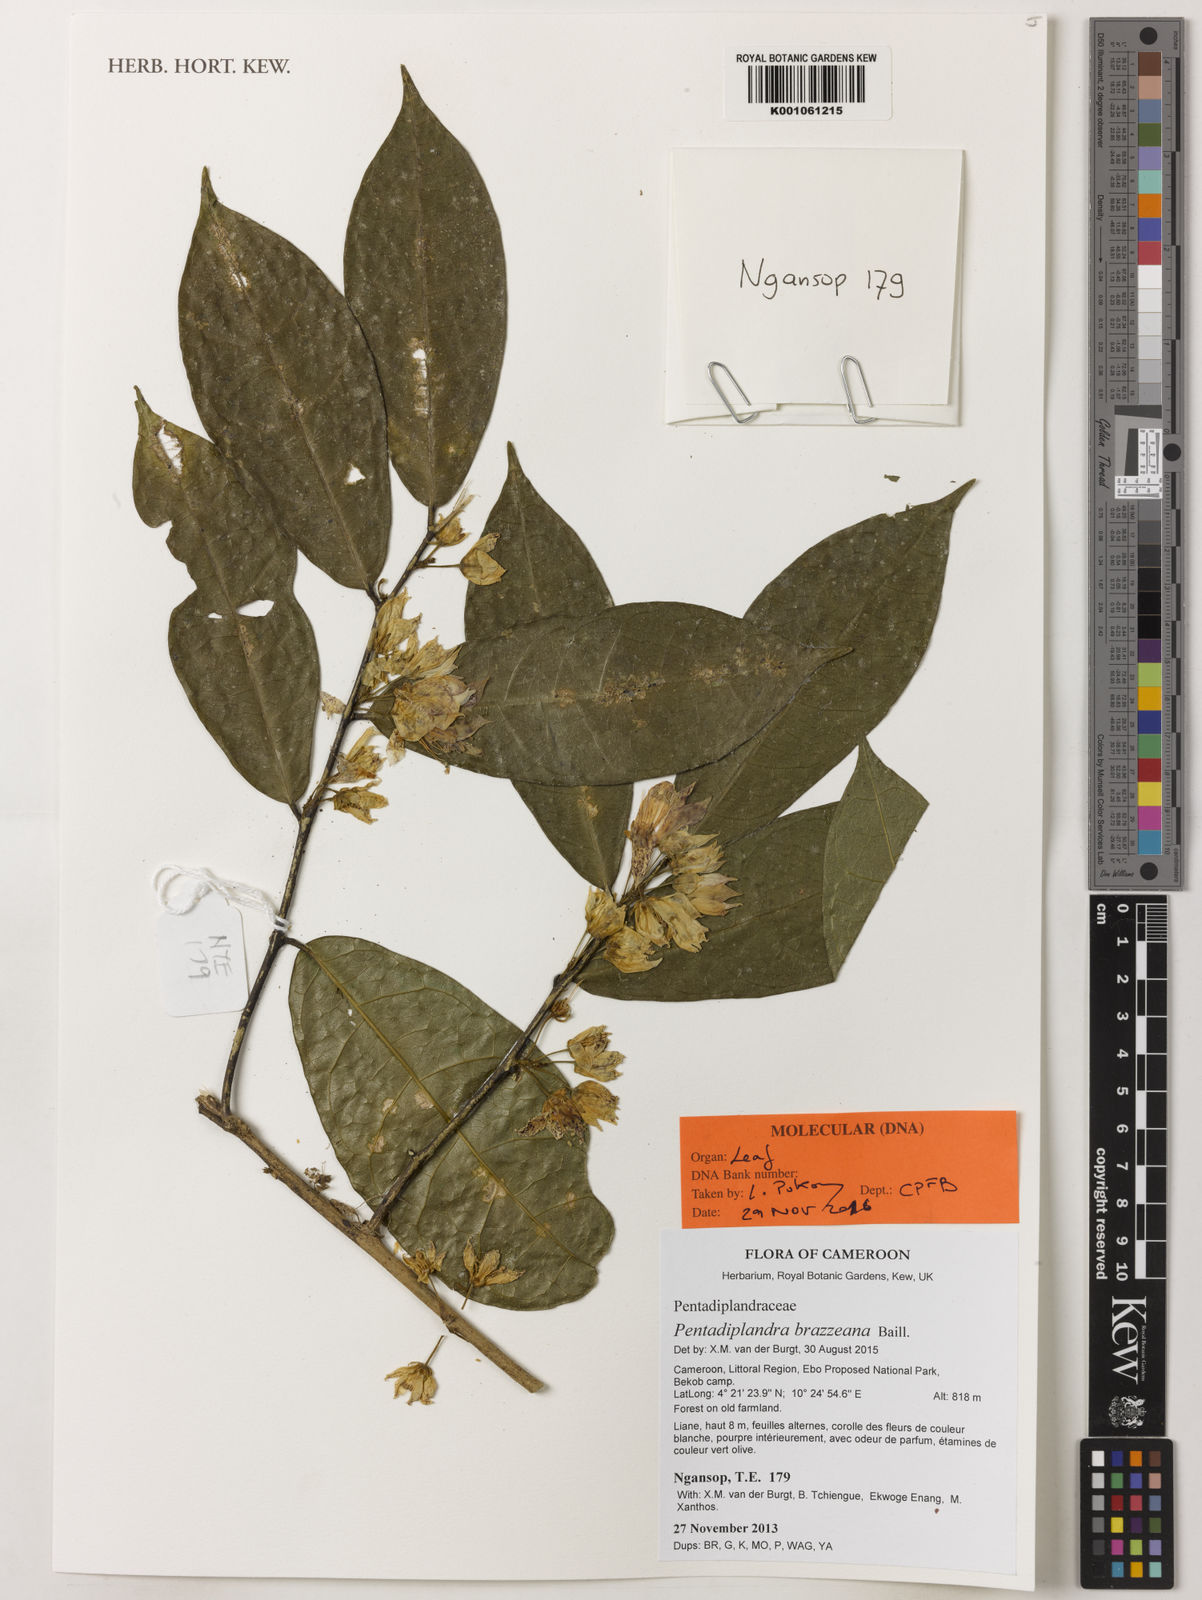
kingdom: Plantae
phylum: Tracheophyta
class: Magnoliopsida
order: Brassicales
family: Pentadiplandraceae
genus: Pentadiplandra
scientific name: Pentadiplandra brazzeana
